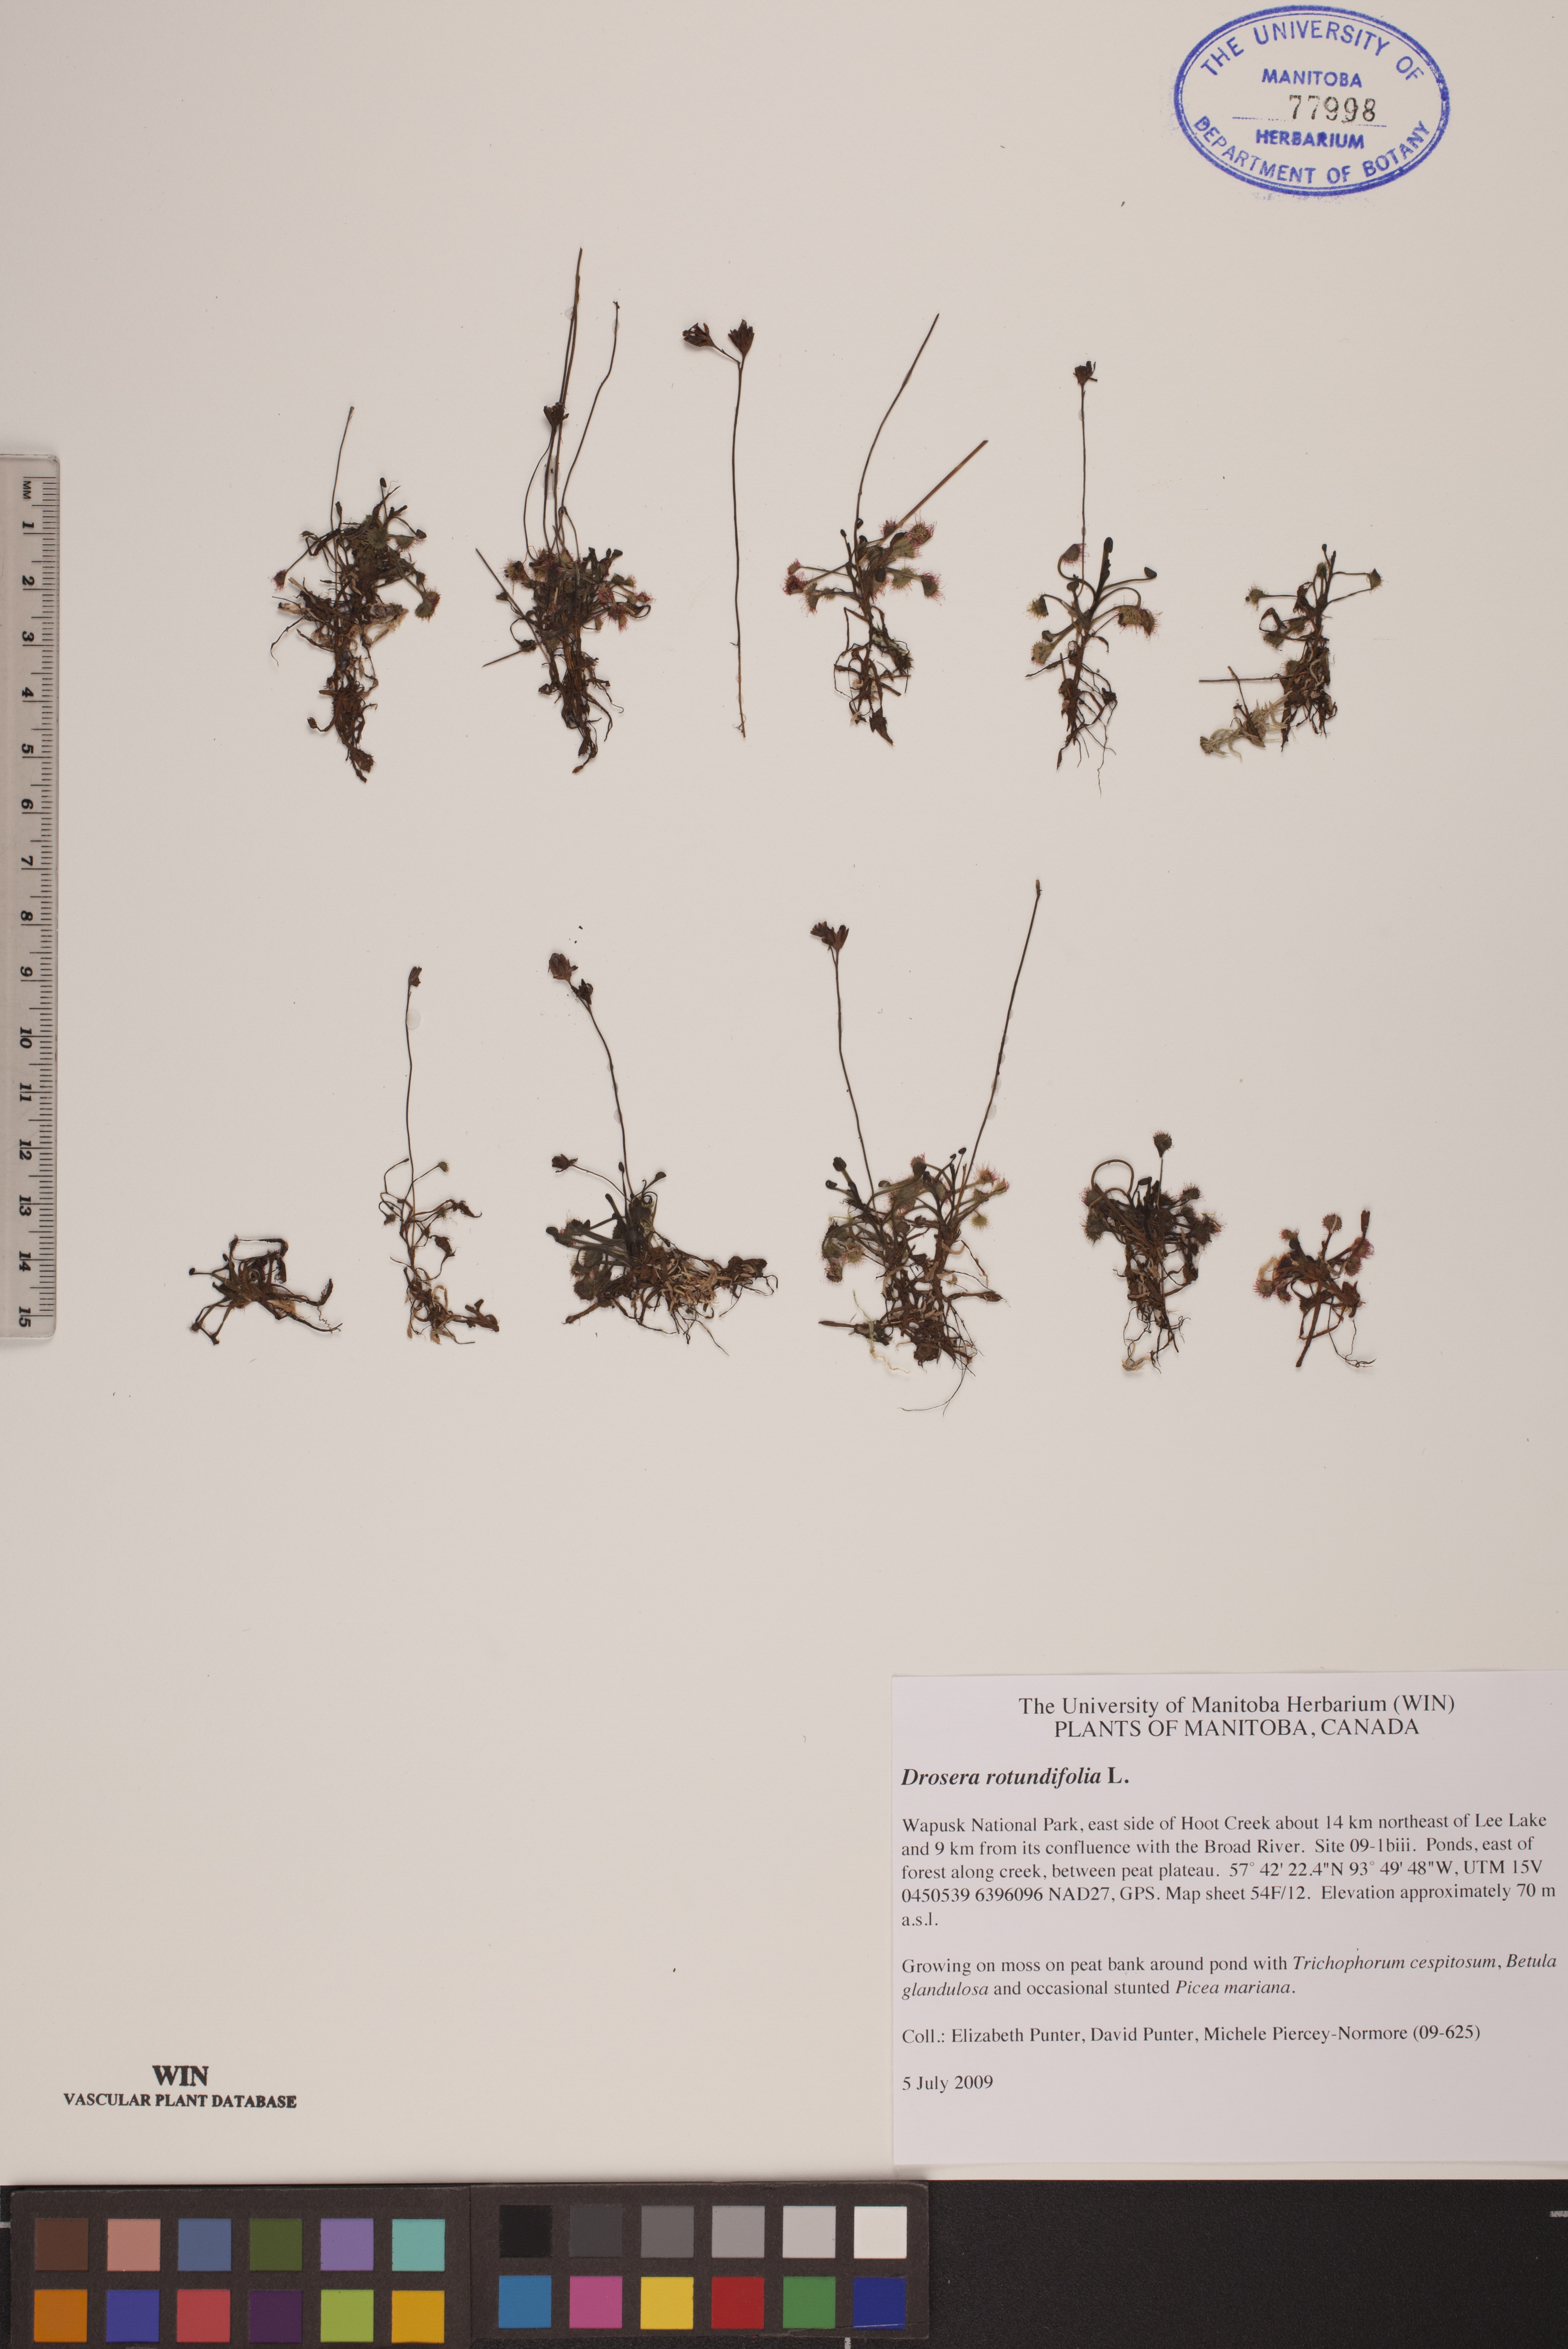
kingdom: Plantae
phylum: Tracheophyta
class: Magnoliopsida
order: Caryophyllales
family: Droseraceae
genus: Drosera
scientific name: Drosera rotundifolia
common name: Round-leaved sundew
